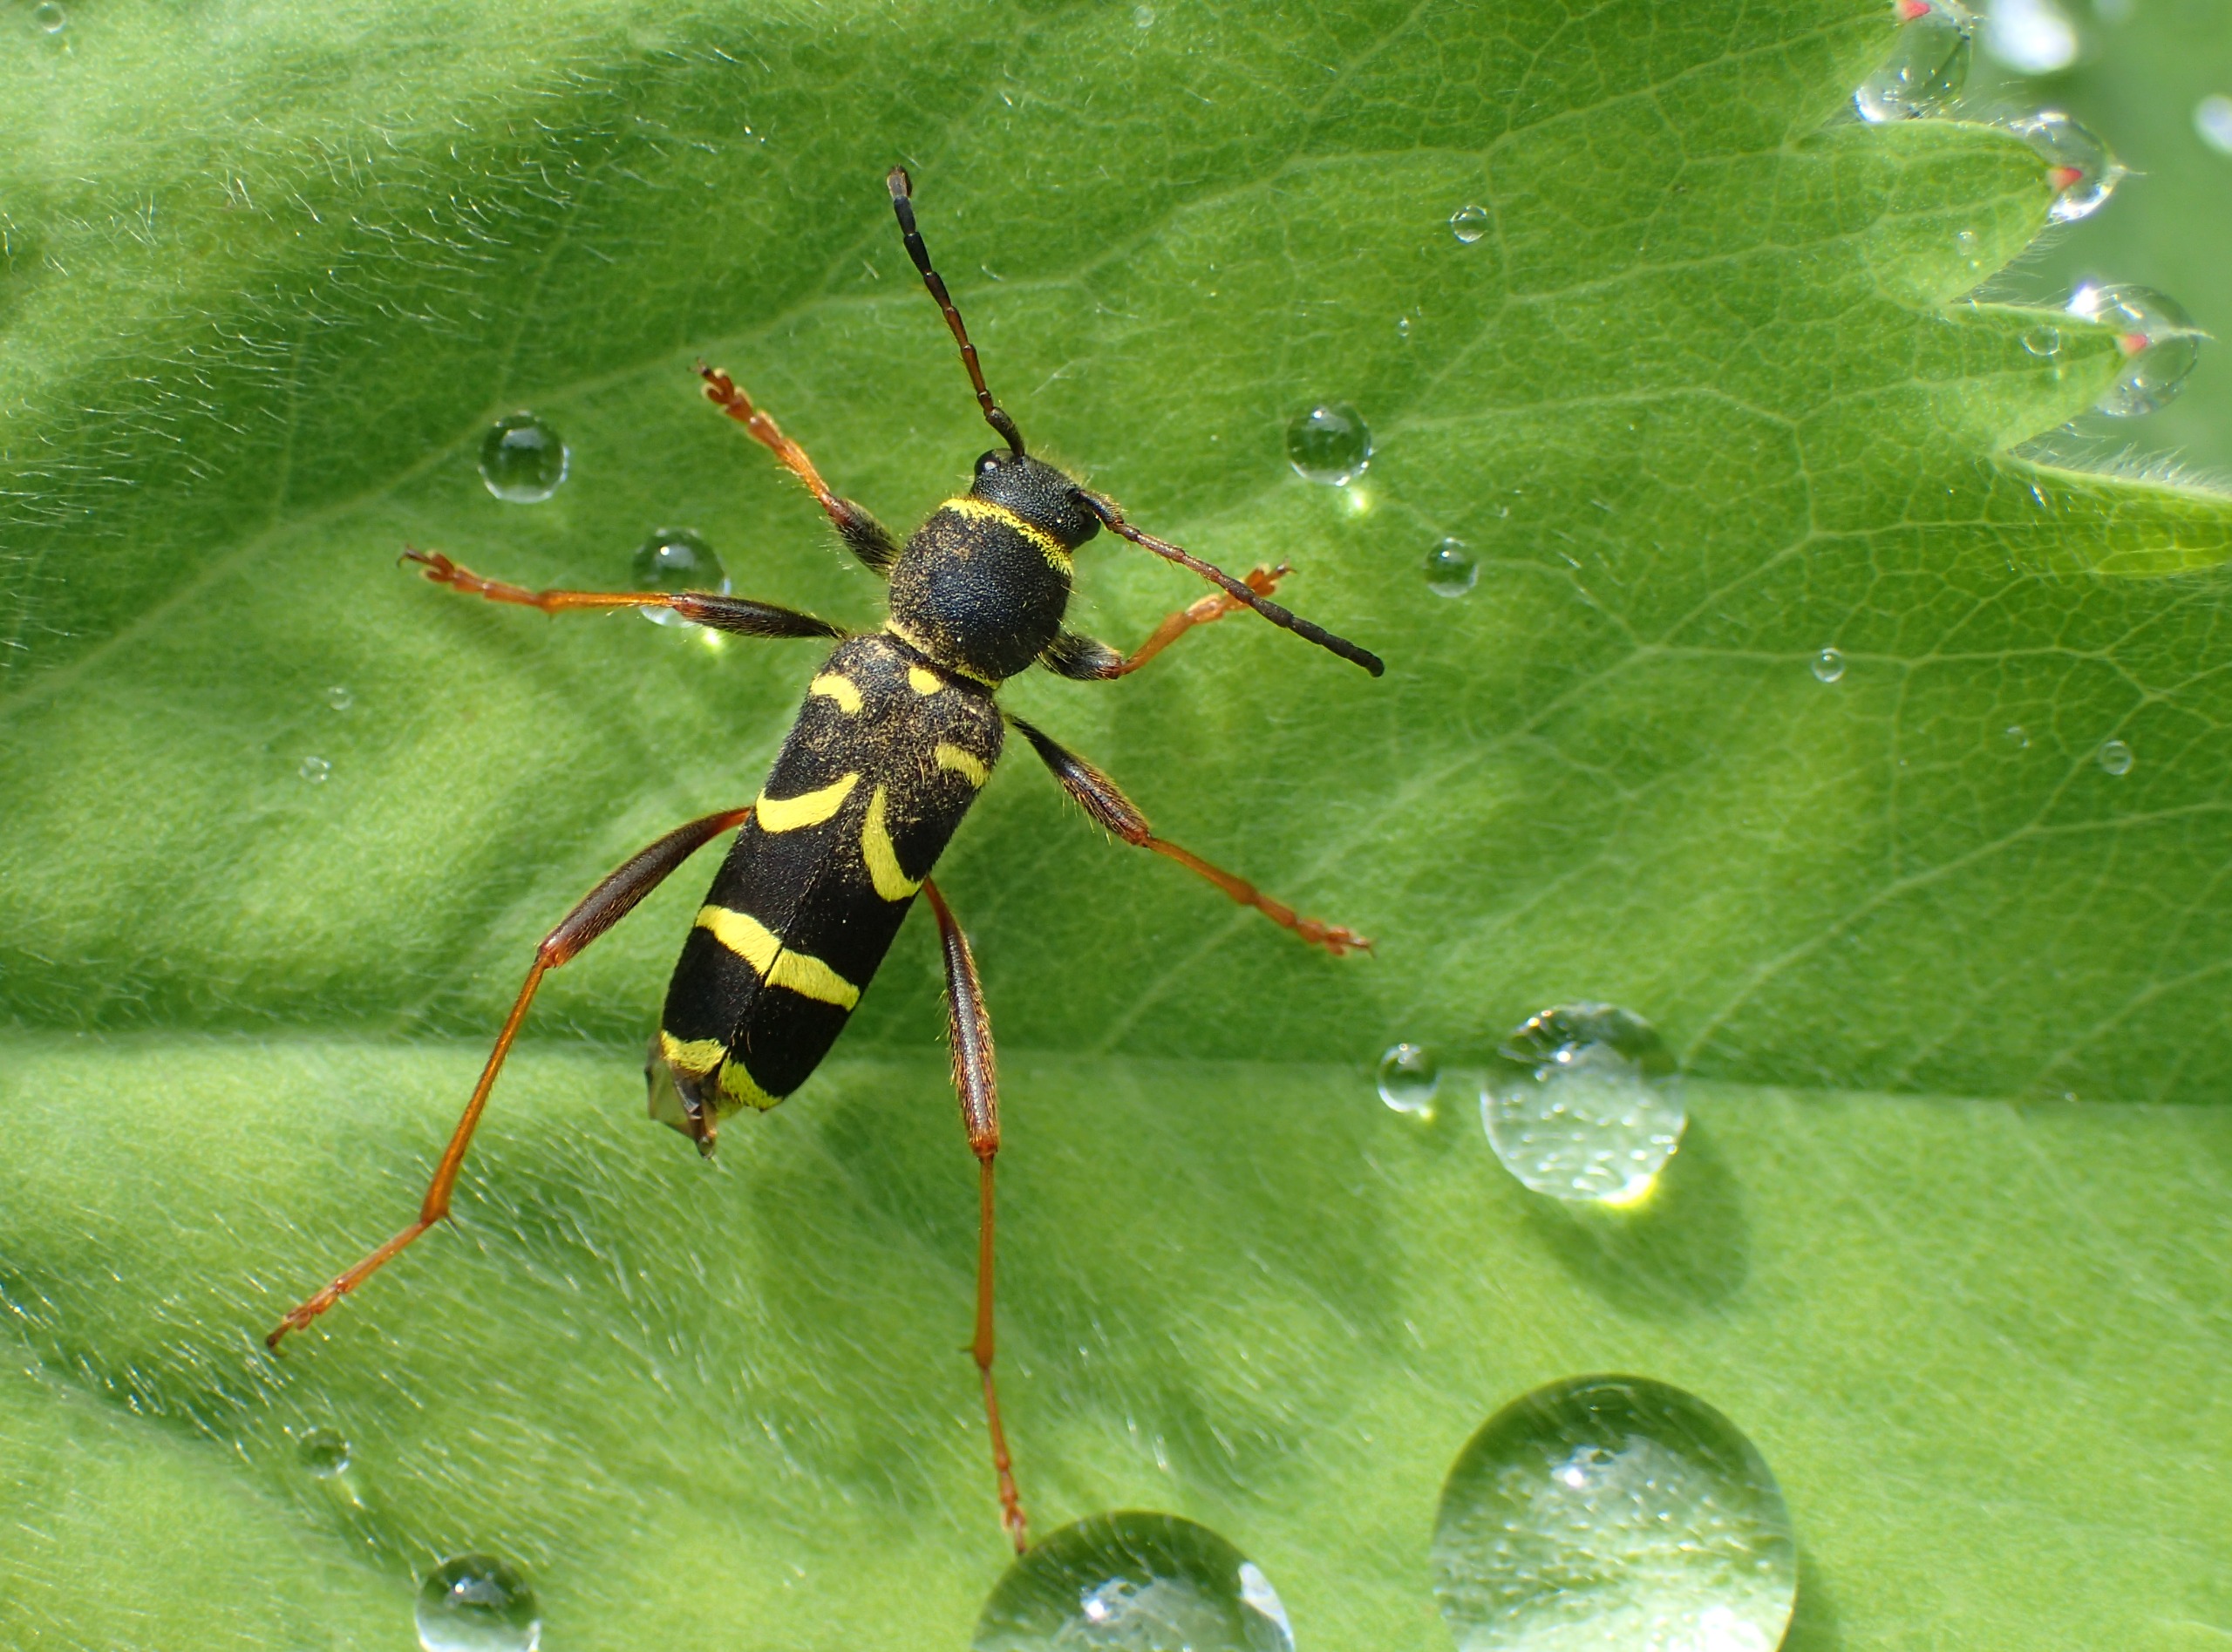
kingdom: Animalia
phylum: Arthropoda
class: Insecta
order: Coleoptera
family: Cerambycidae
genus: Clytus
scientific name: Clytus arietis
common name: Lille hvepsebuk
